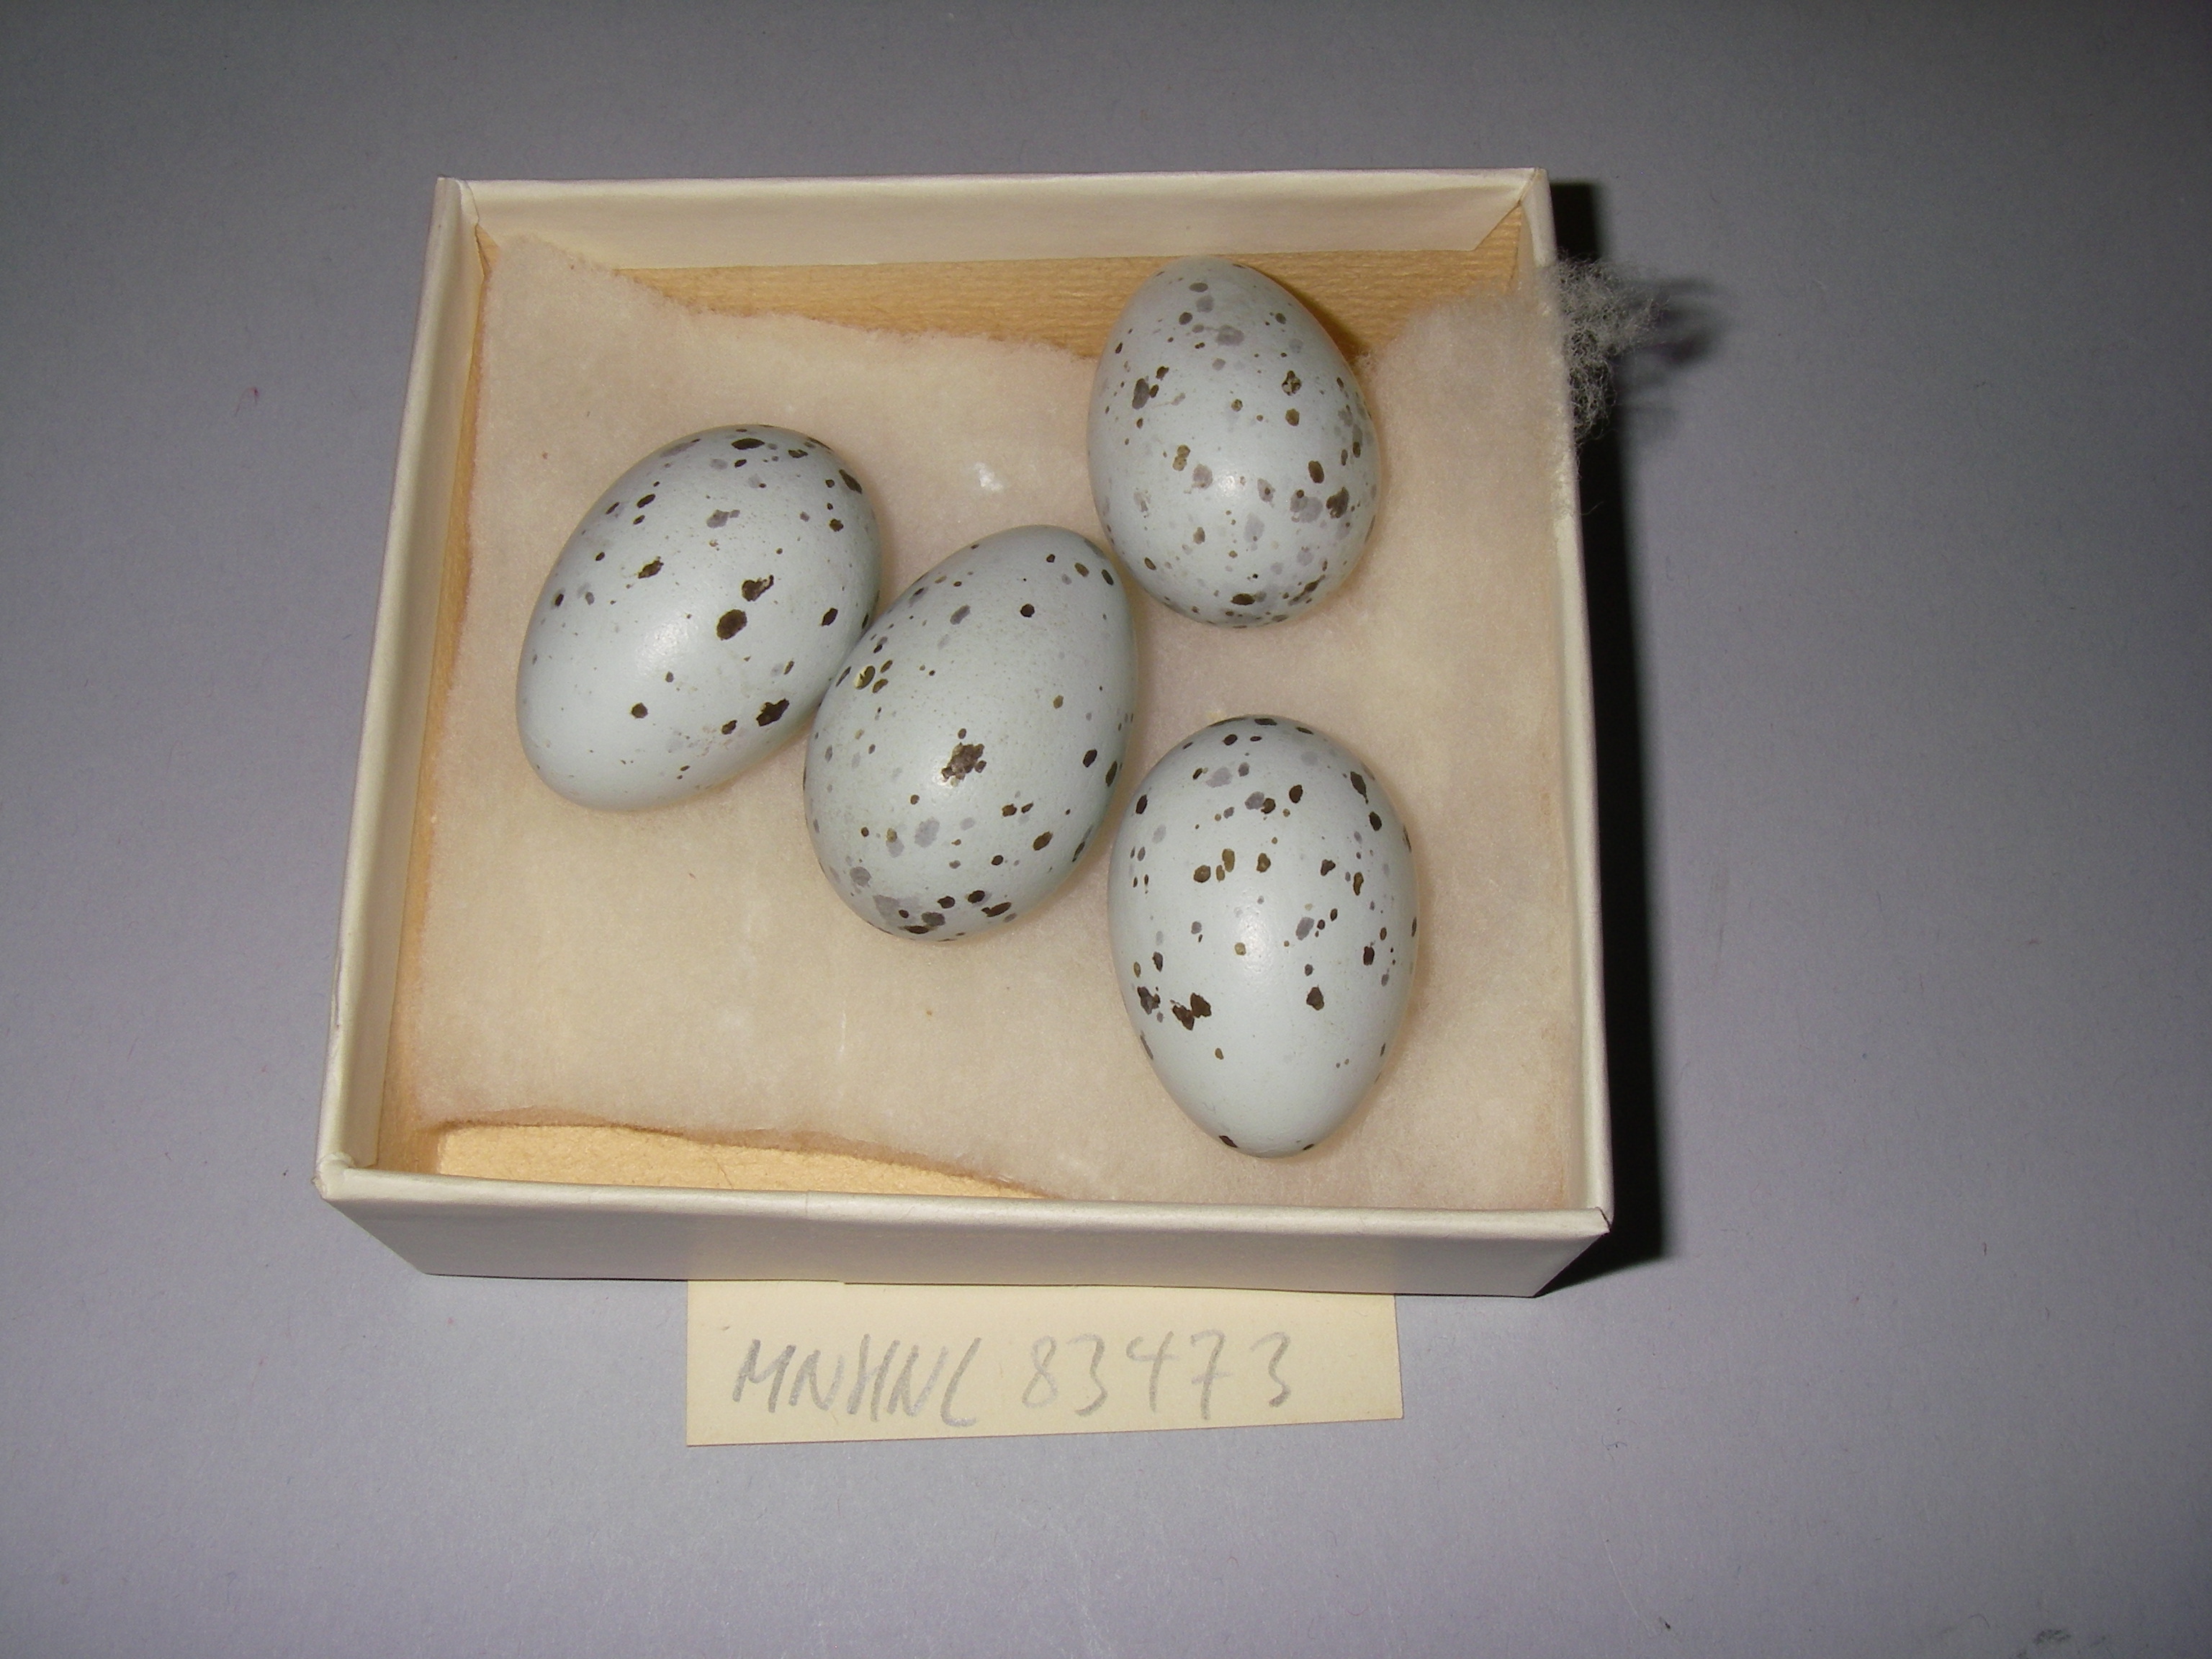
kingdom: Animalia
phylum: Chordata
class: Aves
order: Passeriformes
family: Corvidae
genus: Coloeus
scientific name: Coloeus monedula
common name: Western jackdaw
